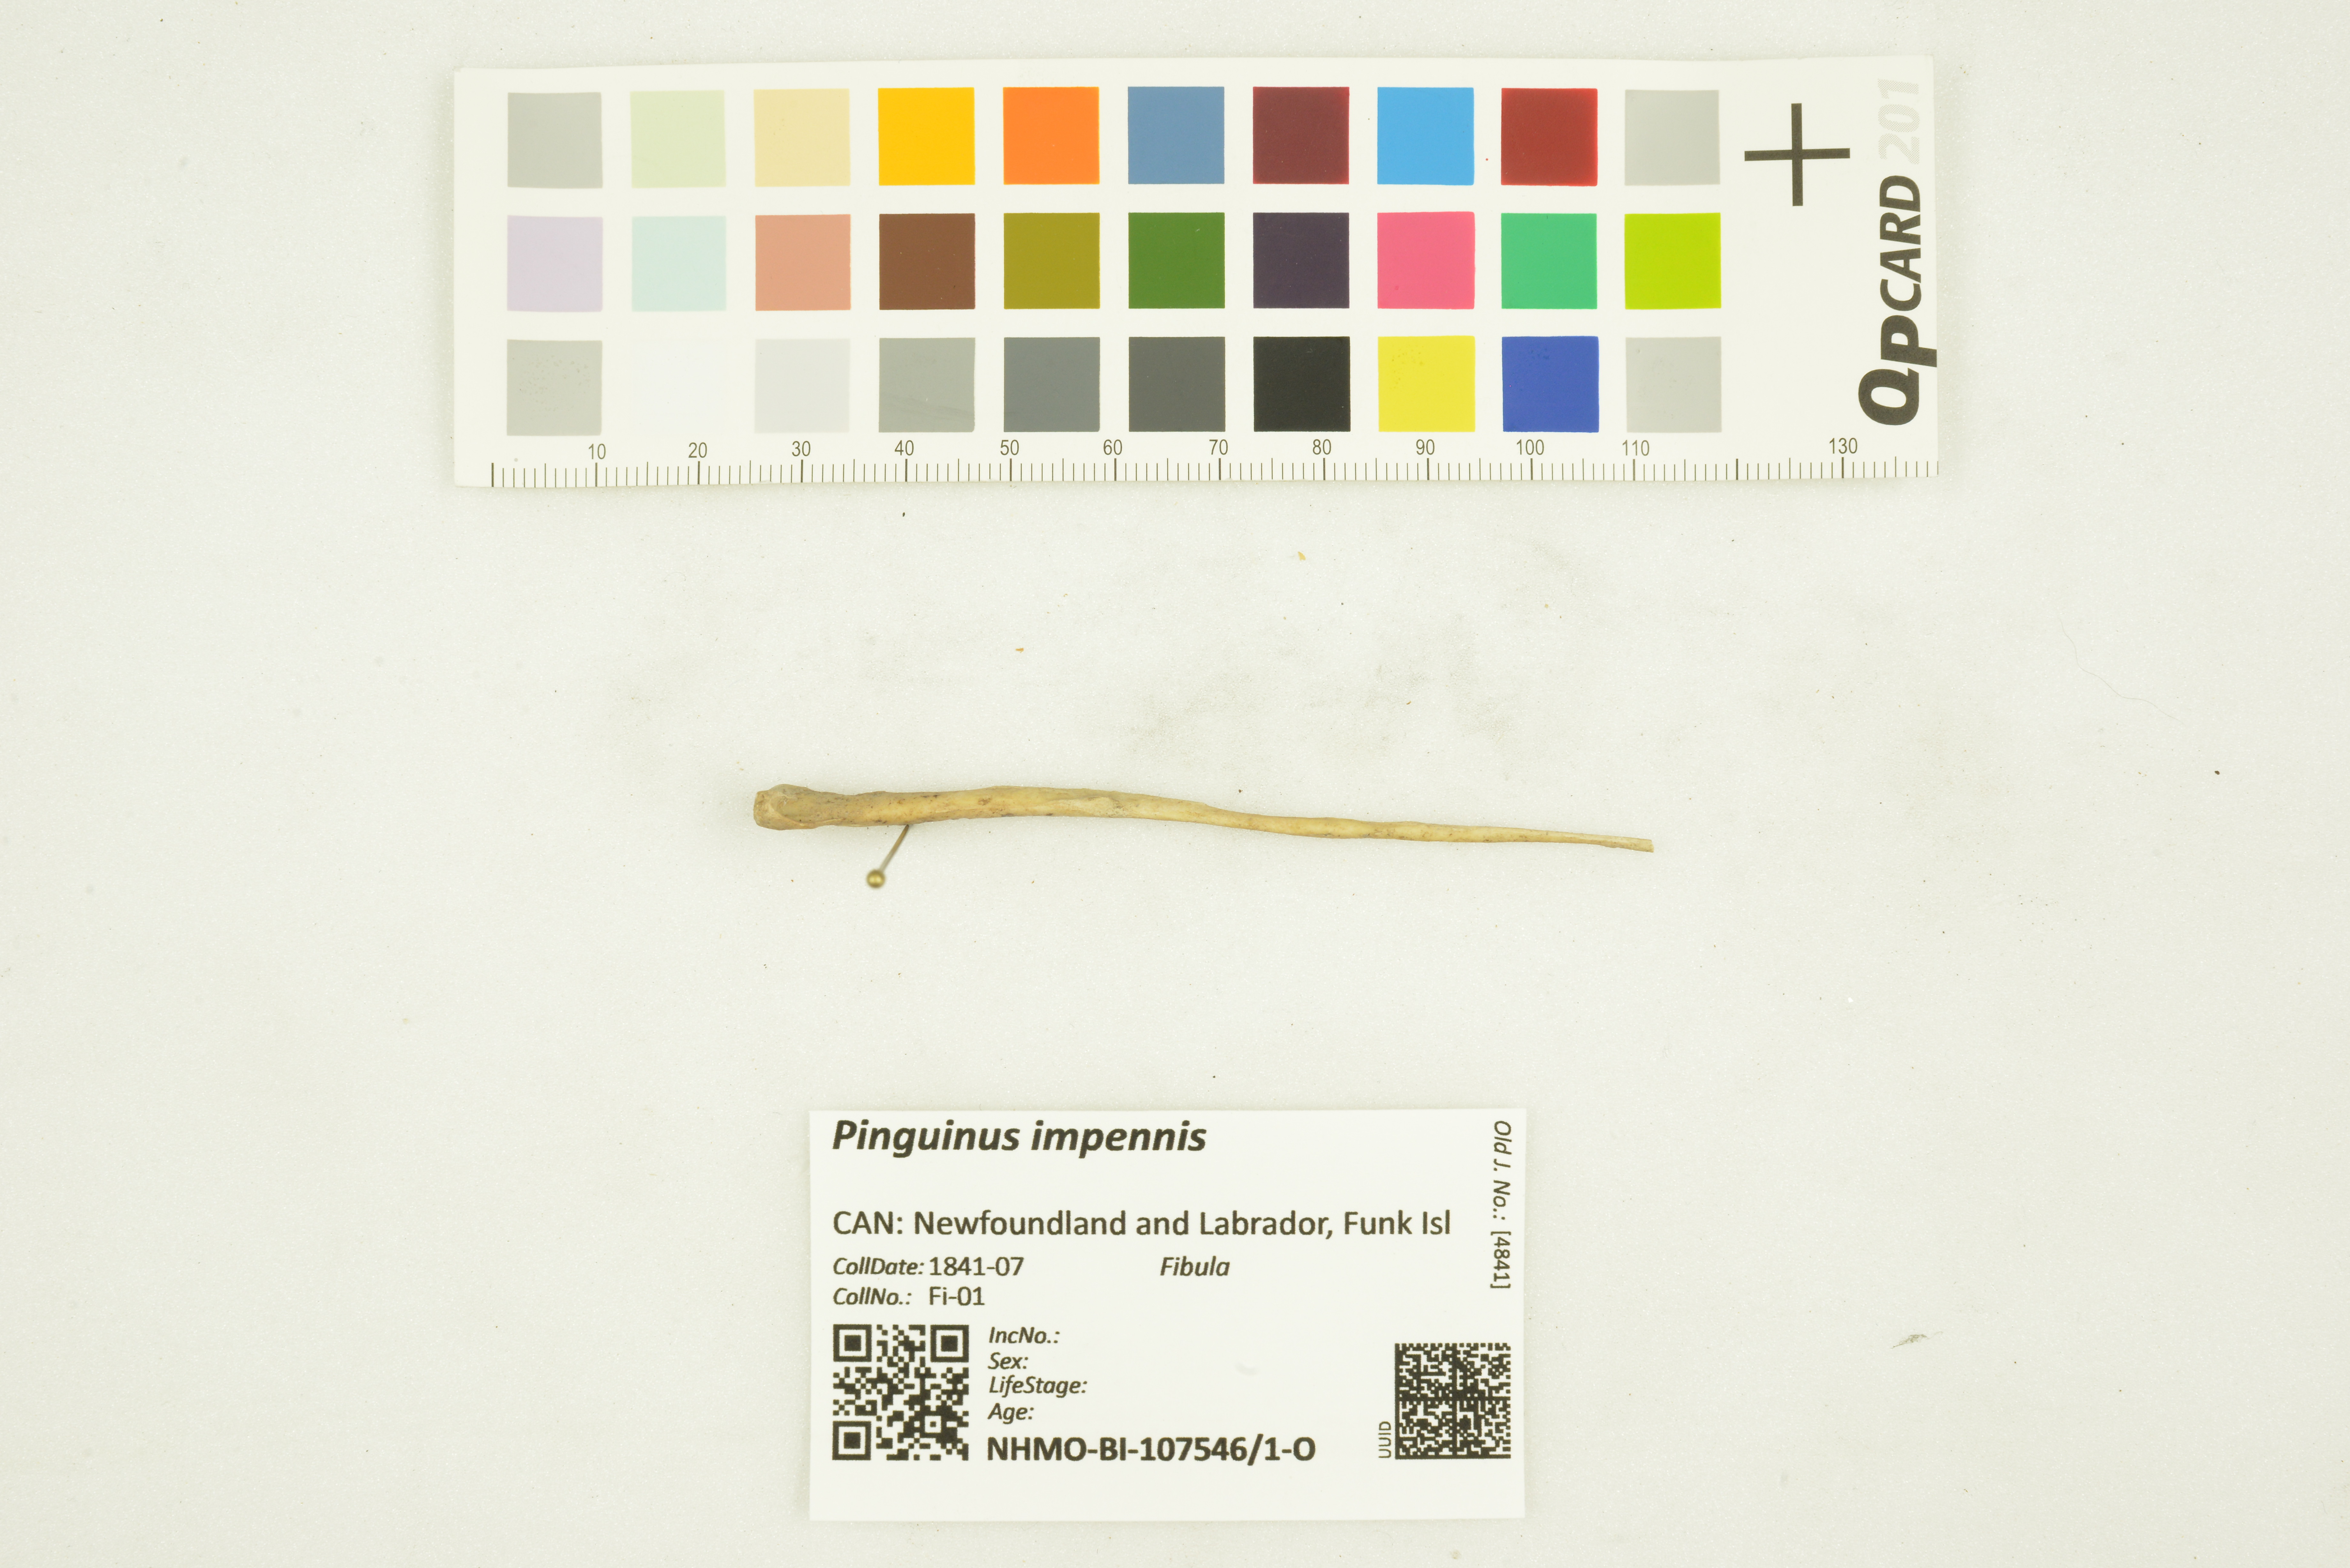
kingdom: Animalia
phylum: Chordata
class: Aves
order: Charadriiformes
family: Alcidae
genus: Pinguinus
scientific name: Pinguinus impennis
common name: Great auk
